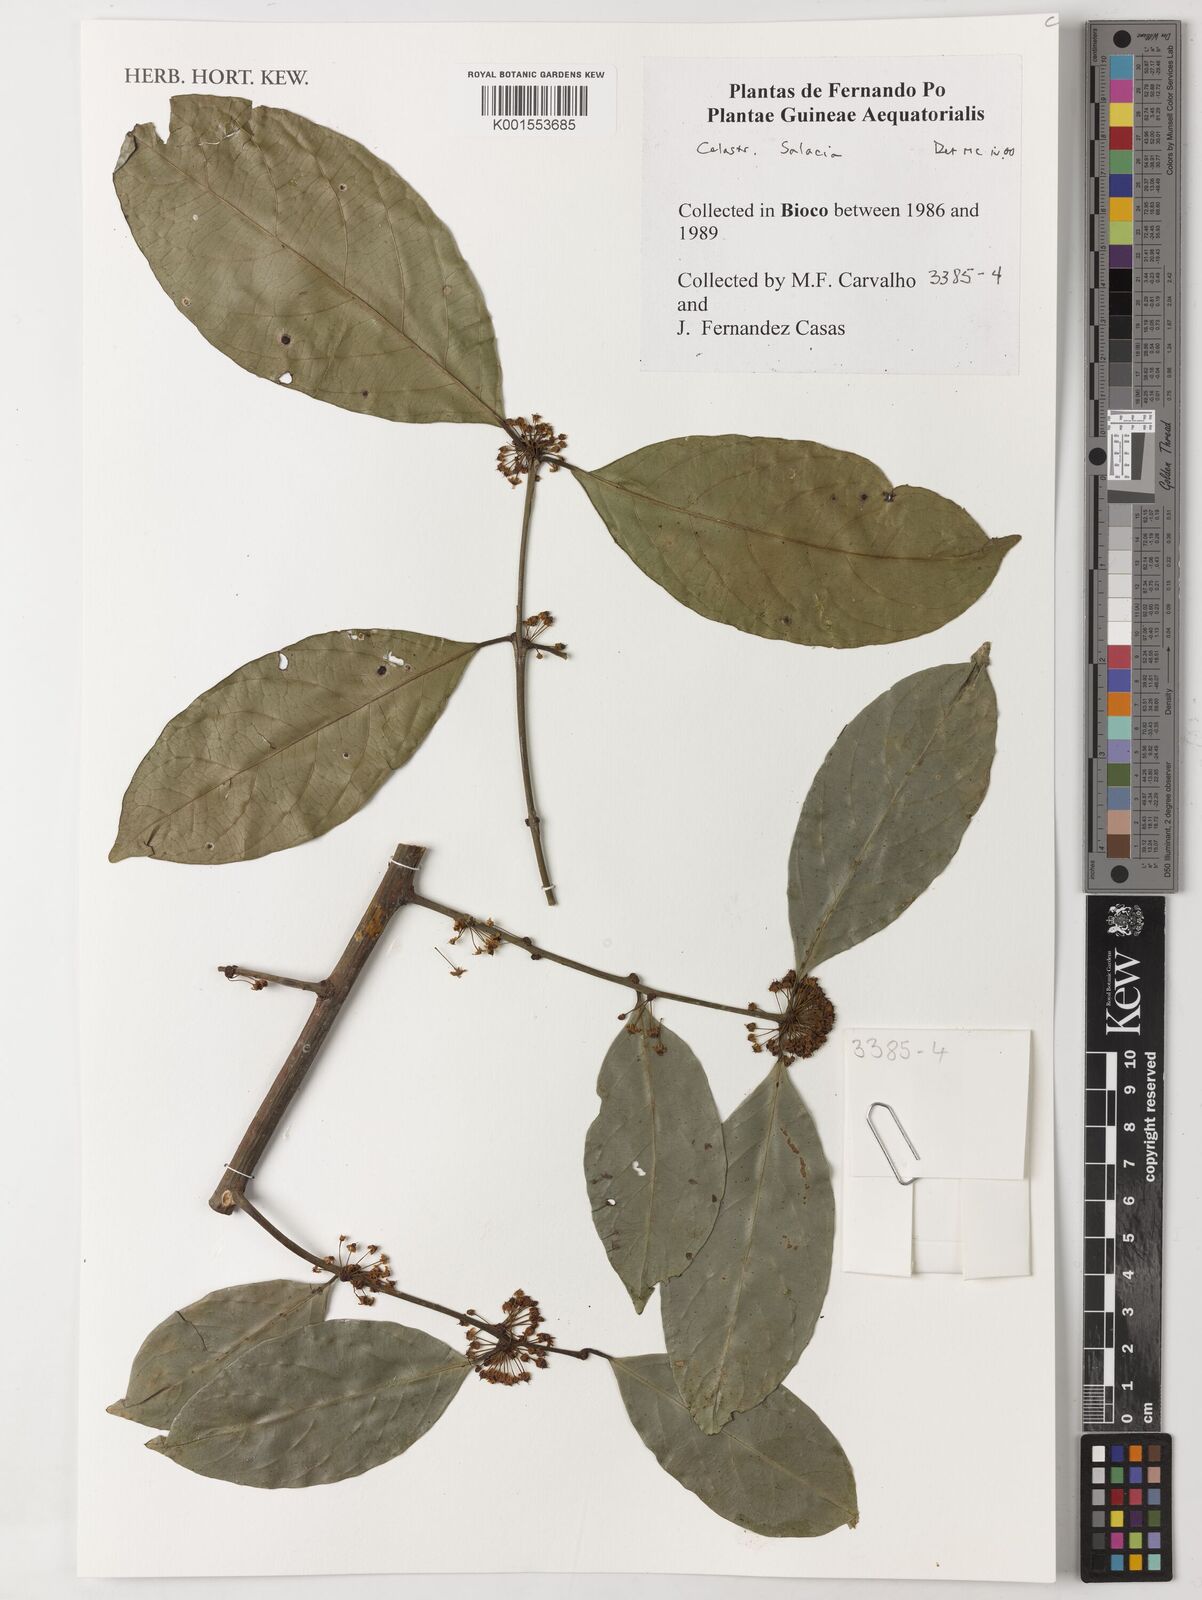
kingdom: Plantae
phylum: Tracheophyta
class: Magnoliopsida
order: Celastrales
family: Celastraceae
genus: Salacia
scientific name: Salacia
